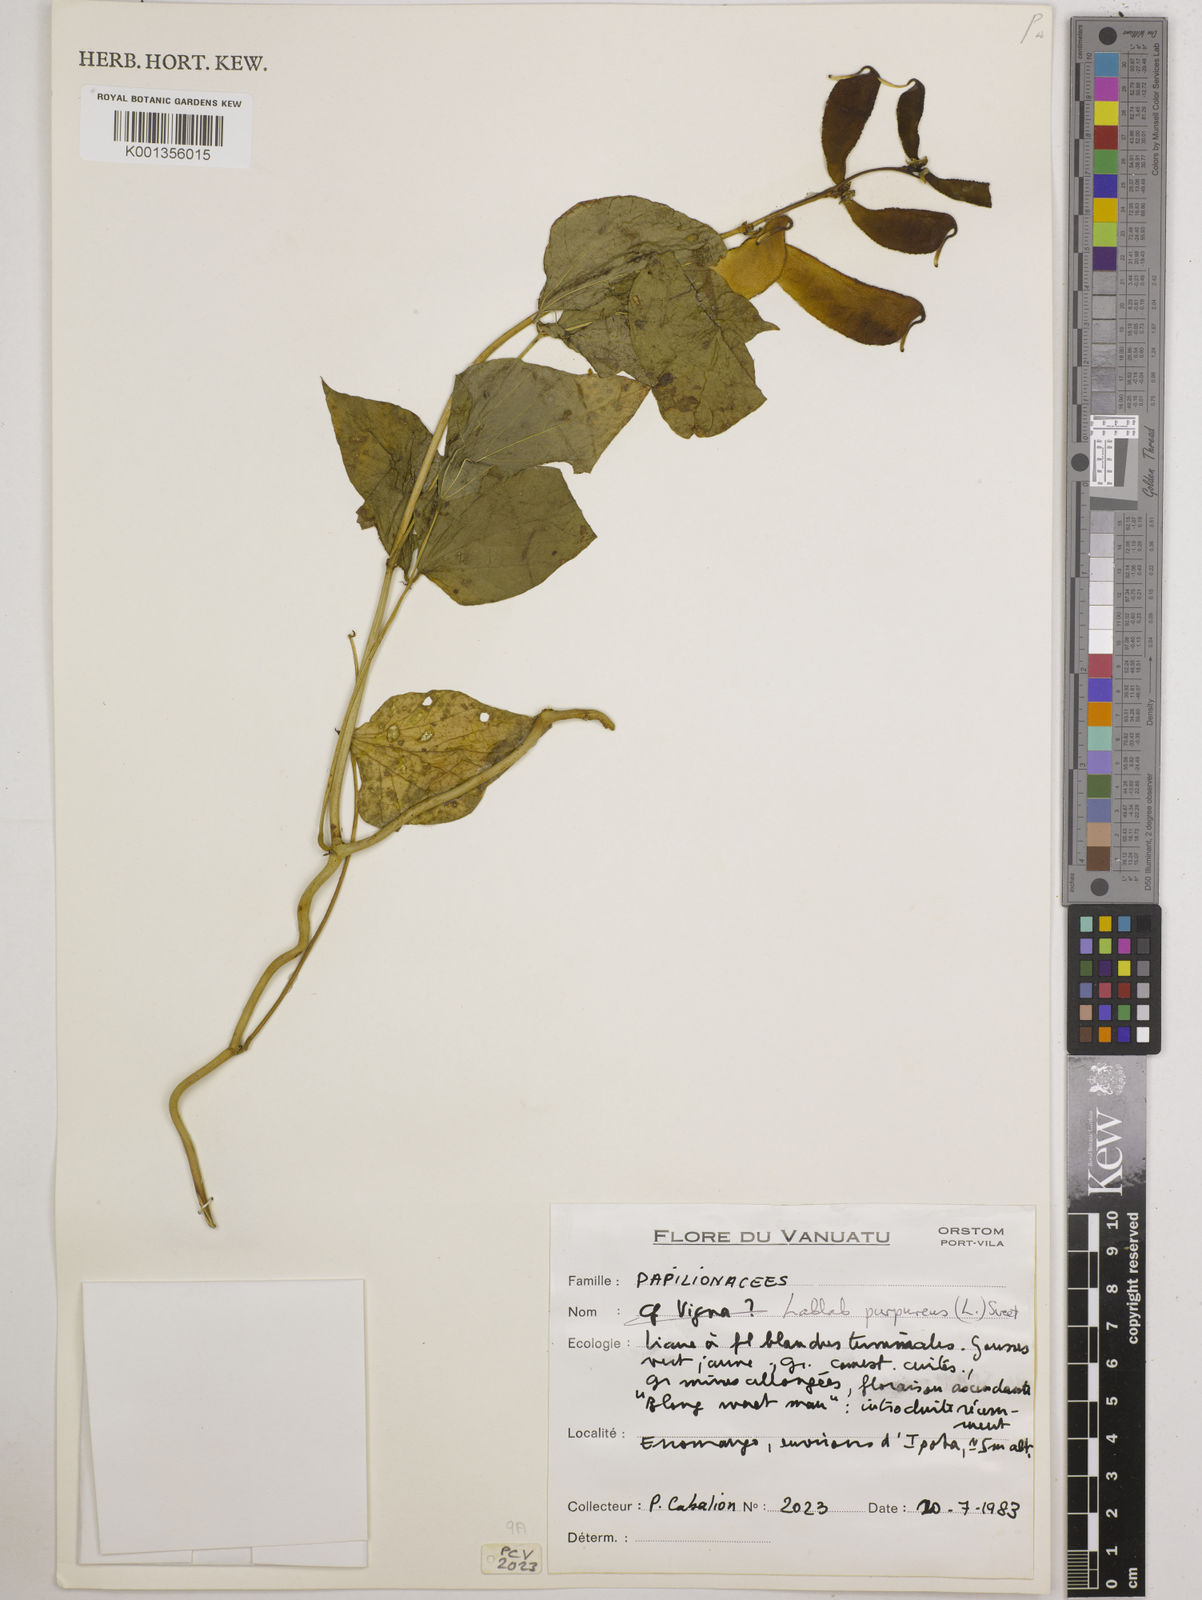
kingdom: Plantae
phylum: Tracheophyta
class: Magnoliopsida
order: Fabales
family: Fabaceae
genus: Lablab
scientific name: Lablab purpureus
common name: Lablab-bean
